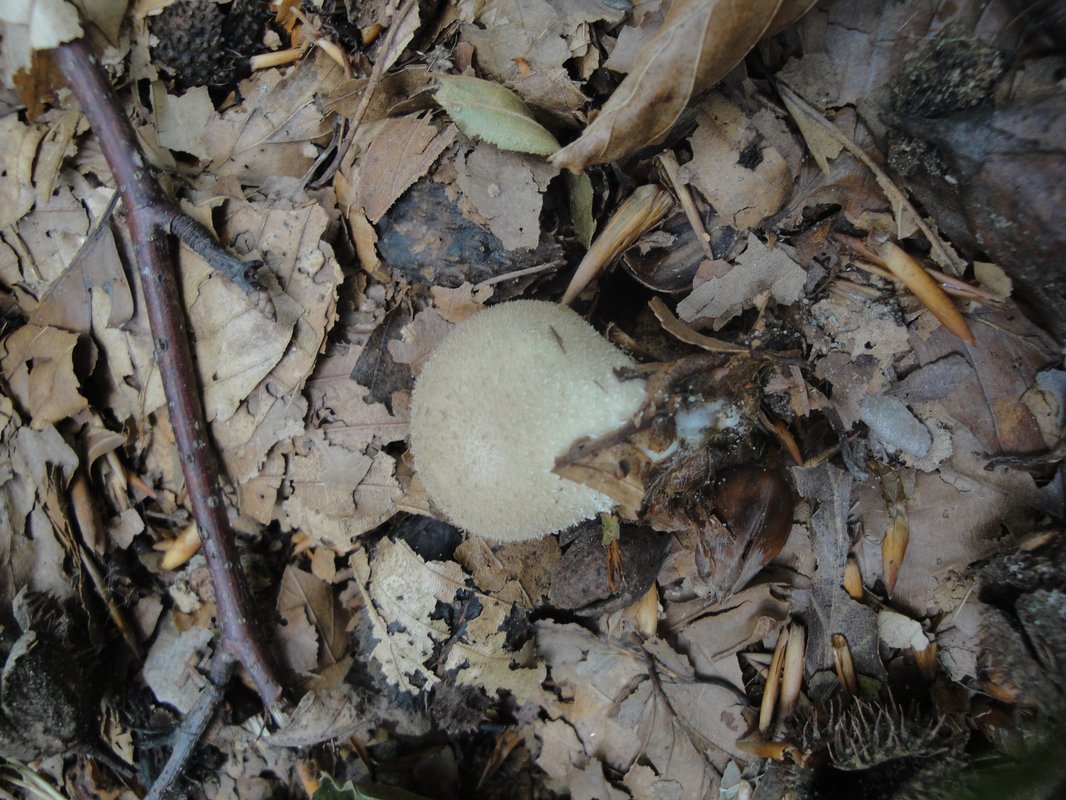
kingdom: Fungi
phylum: Basidiomycota
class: Agaricomycetes
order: Agaricales
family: Lycoperdaceae
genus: Lycoperdon
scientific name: Lycoperdon molle
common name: skov-støvbold
